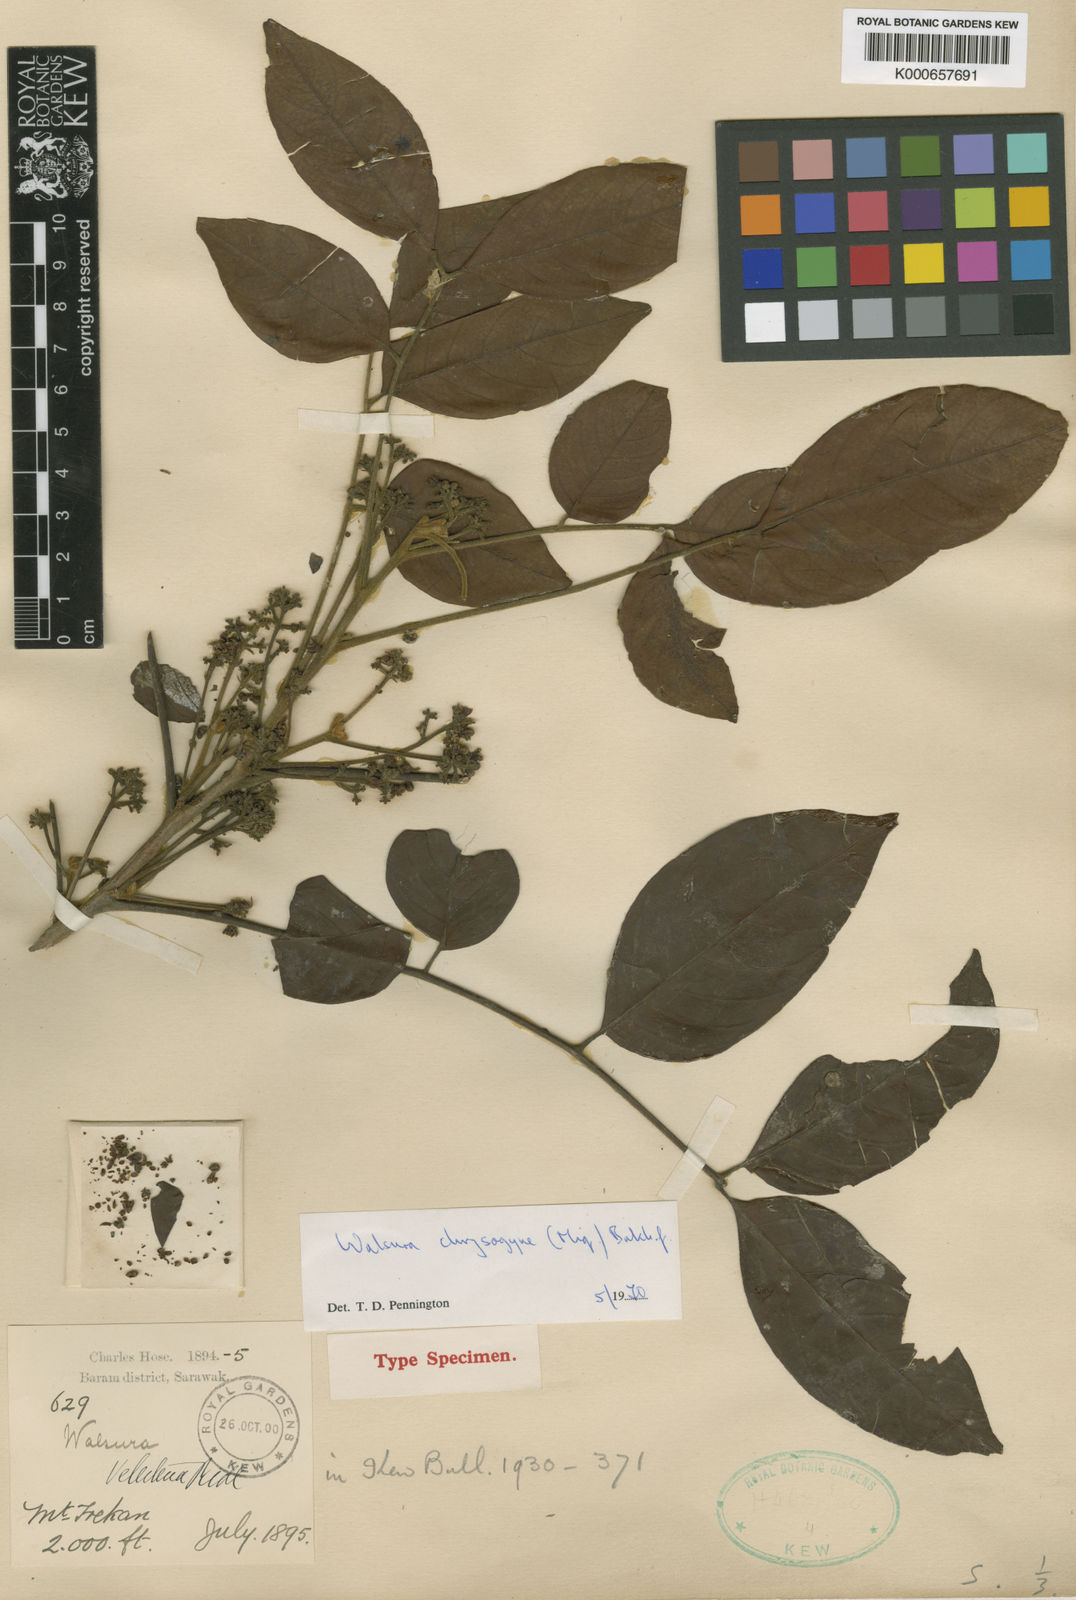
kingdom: Plantae
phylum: Tracheophyta
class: Magnoliopsida
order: Sapindales
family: Meliaceae
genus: Walsura
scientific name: Walsura
